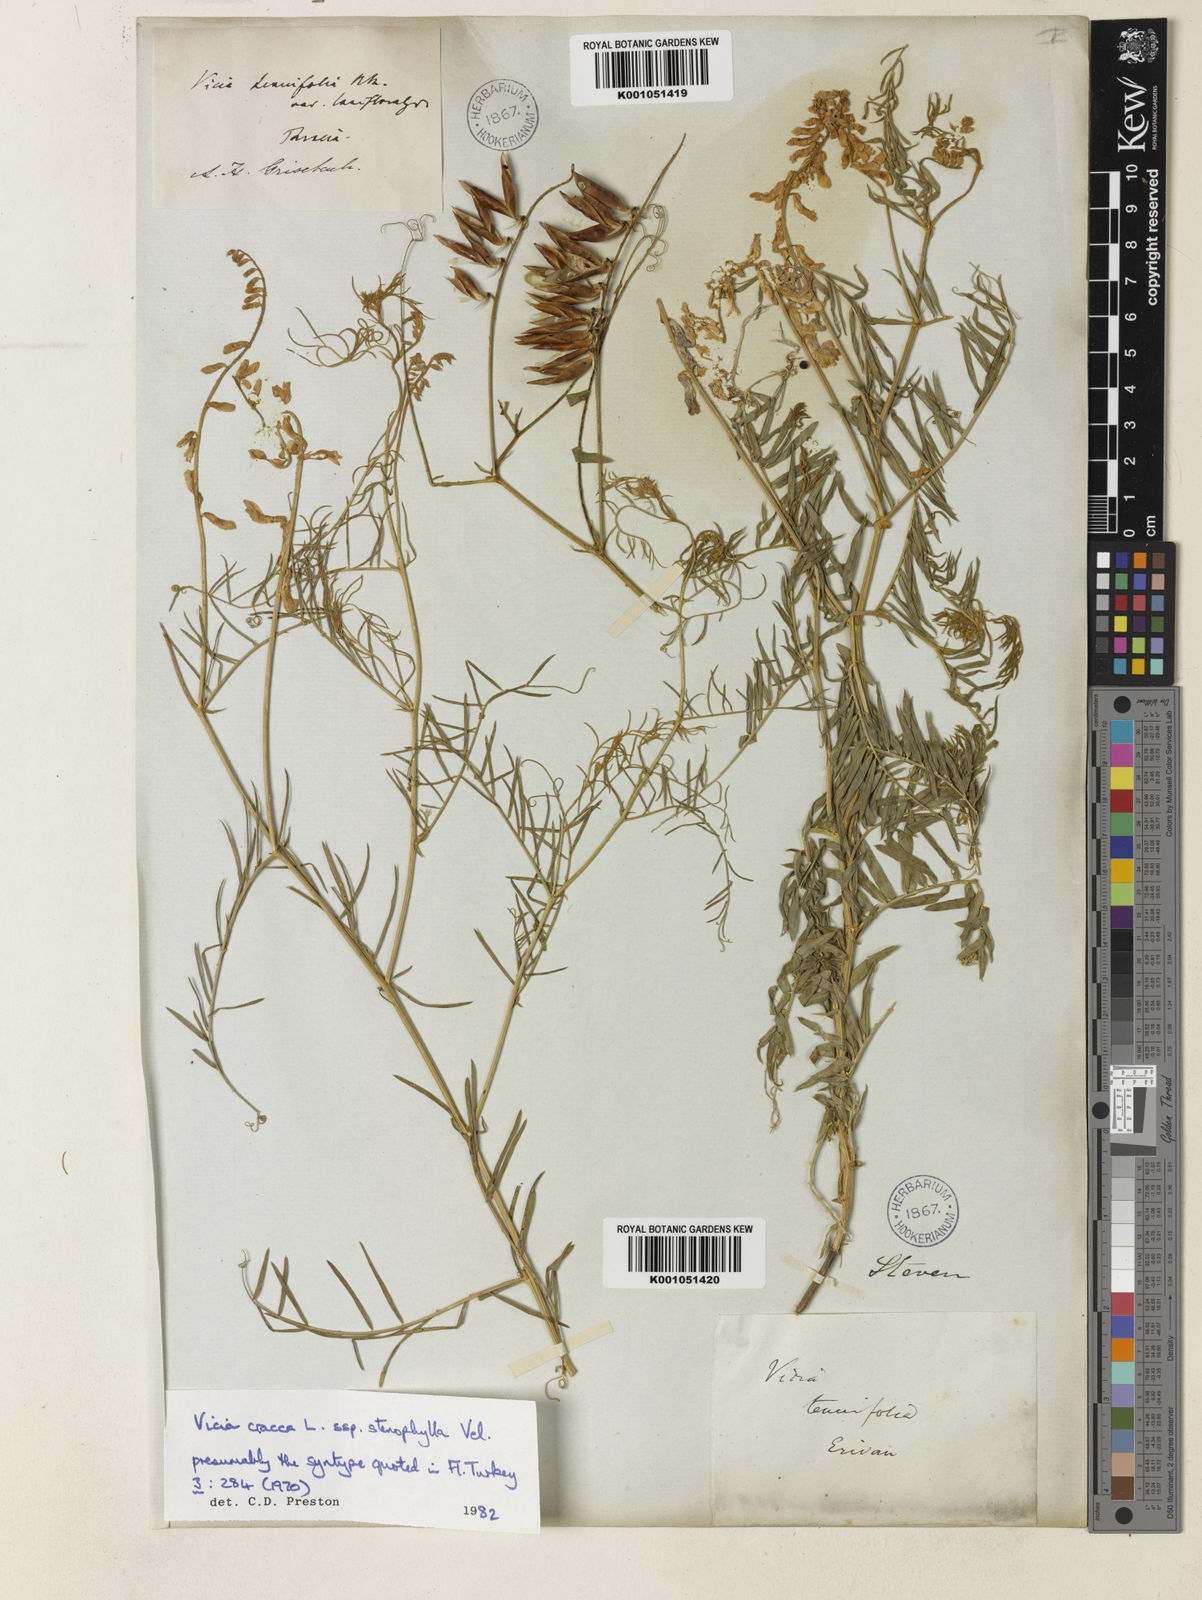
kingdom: Plantae
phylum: Tracheophyta
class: Magnoliopsida
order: Fabales
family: Fabaceae
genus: Vicia
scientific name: Vicia cracca
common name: Bird vetch
